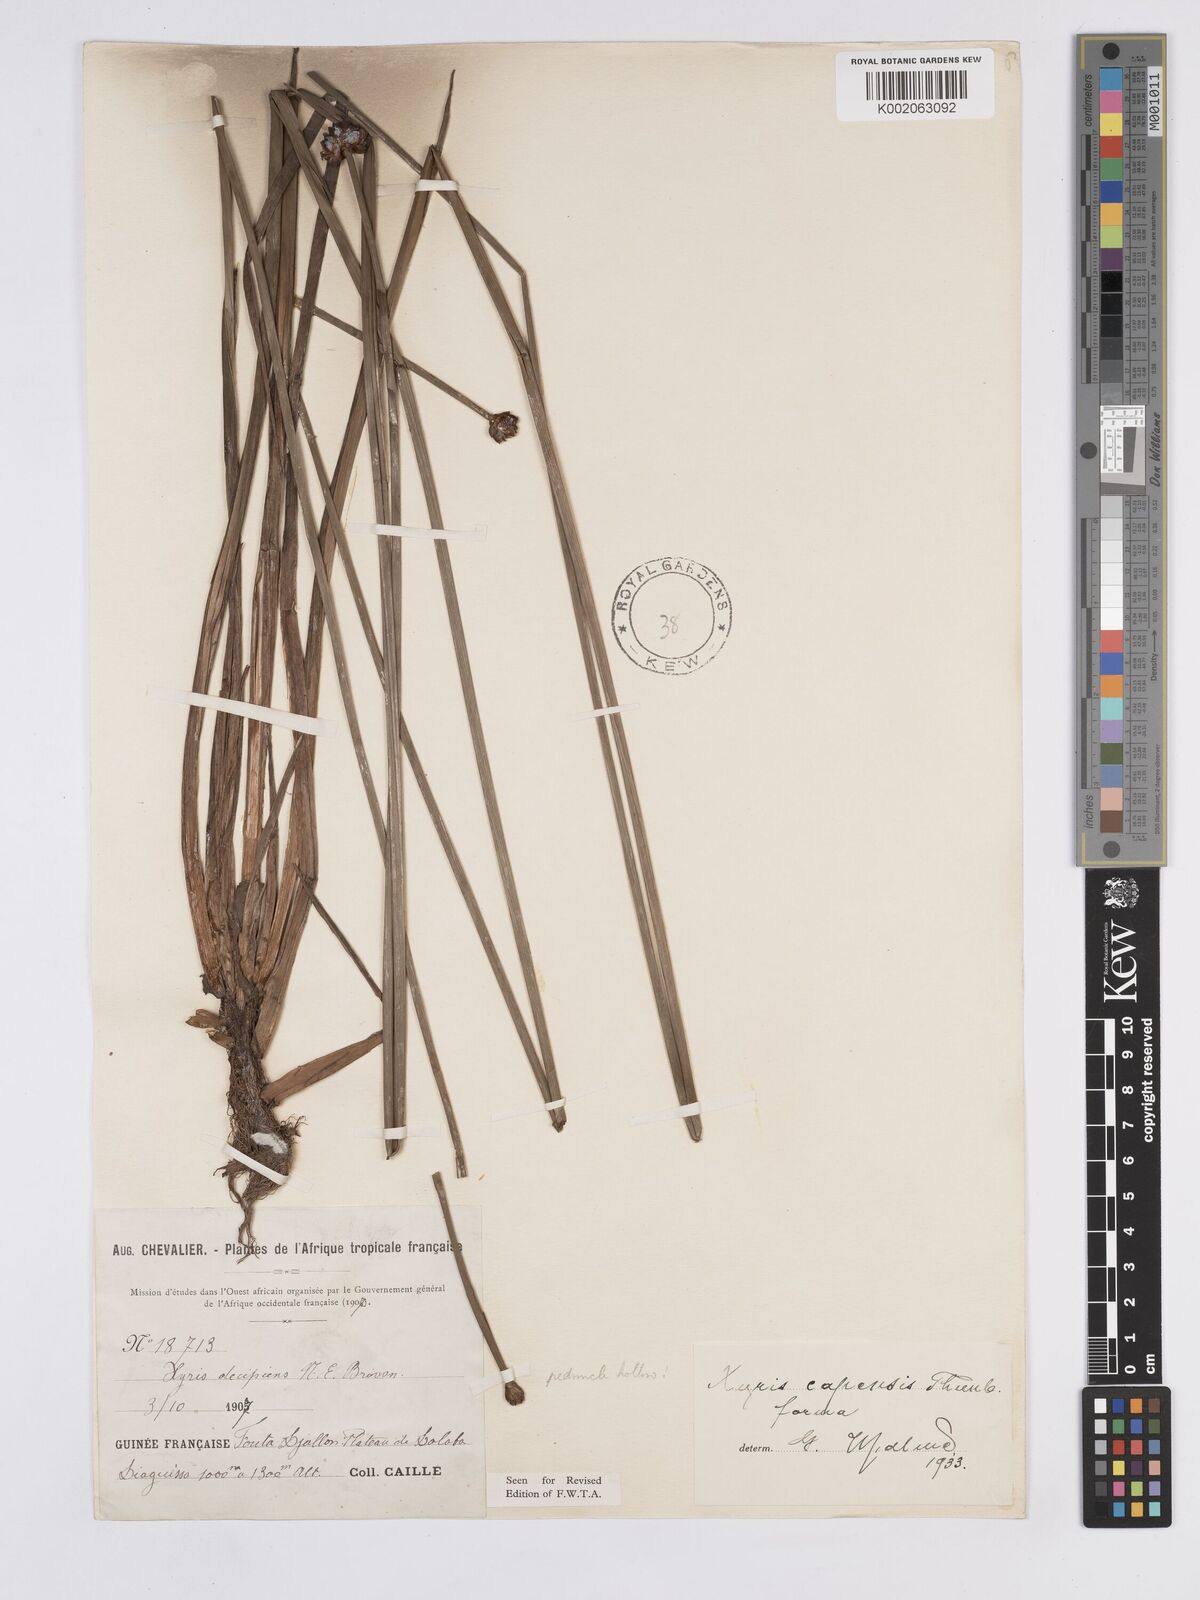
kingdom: Plantae
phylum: Tracheophyta
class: Liliopsida
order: Poales
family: Xyridaceae
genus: Xyris
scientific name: Xyris capensis
